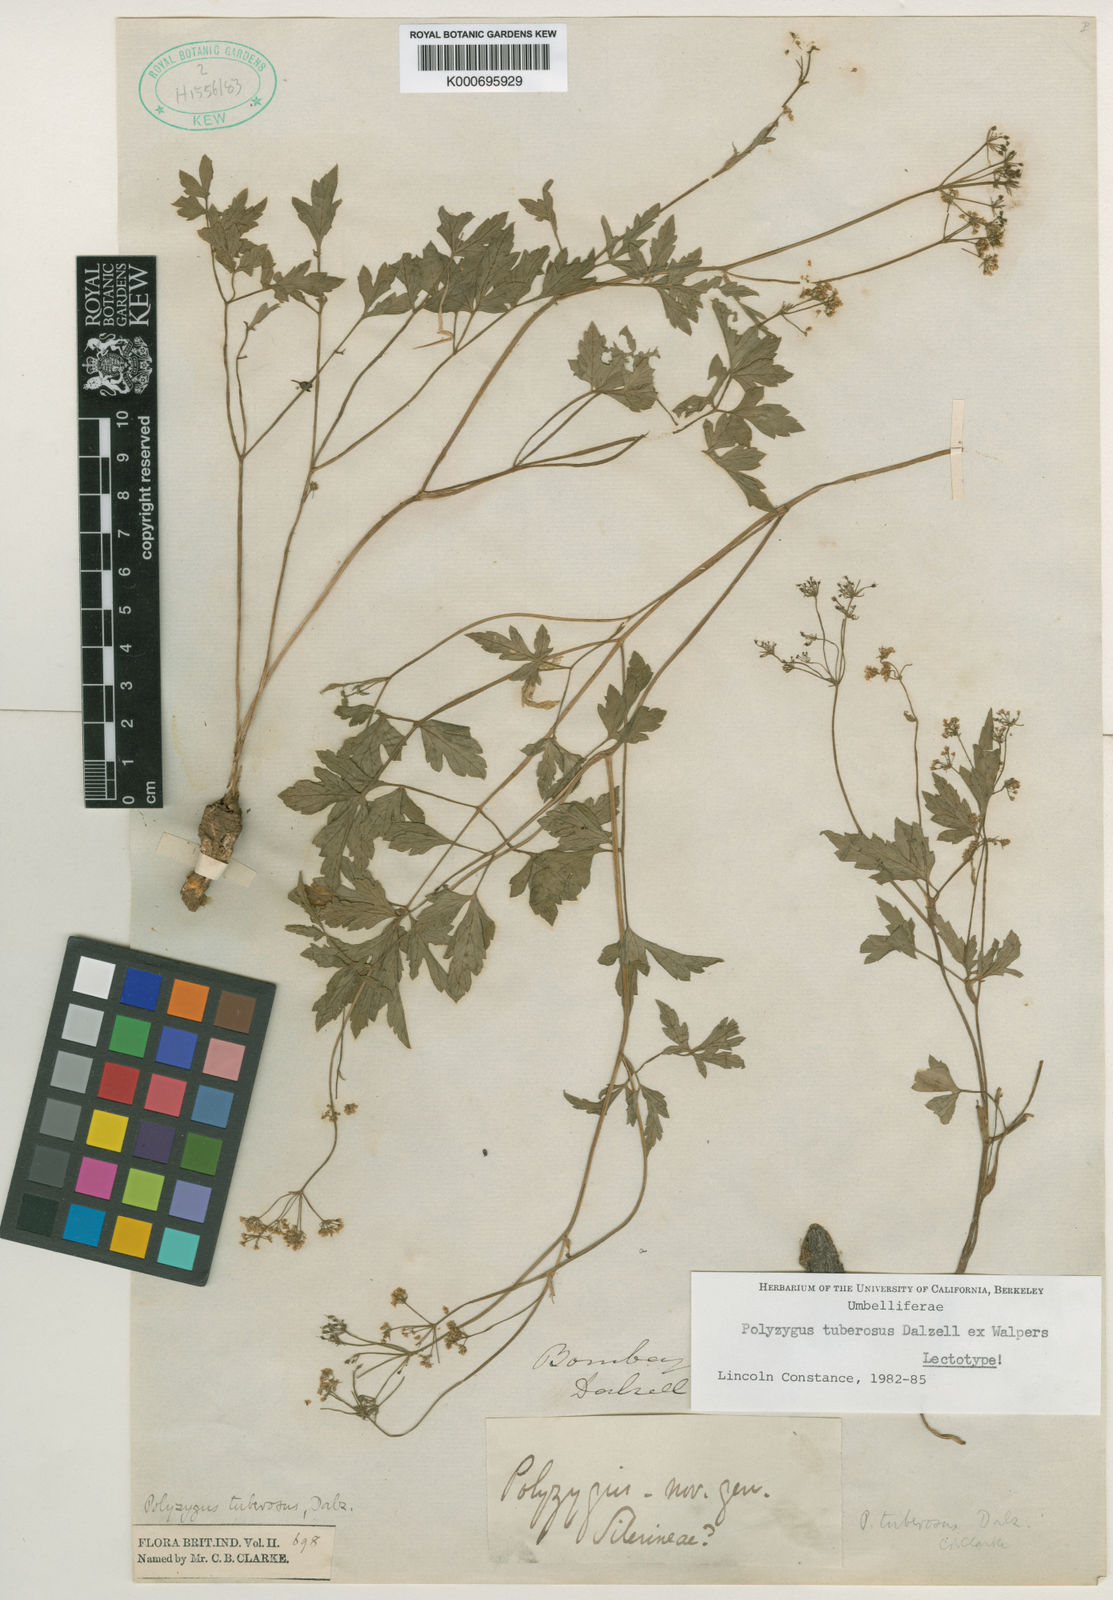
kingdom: Plantae
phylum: Tracheophyta
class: Magnoliopsida
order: Apiales
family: Apiaceae
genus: Polyzygus
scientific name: Polyzygus
